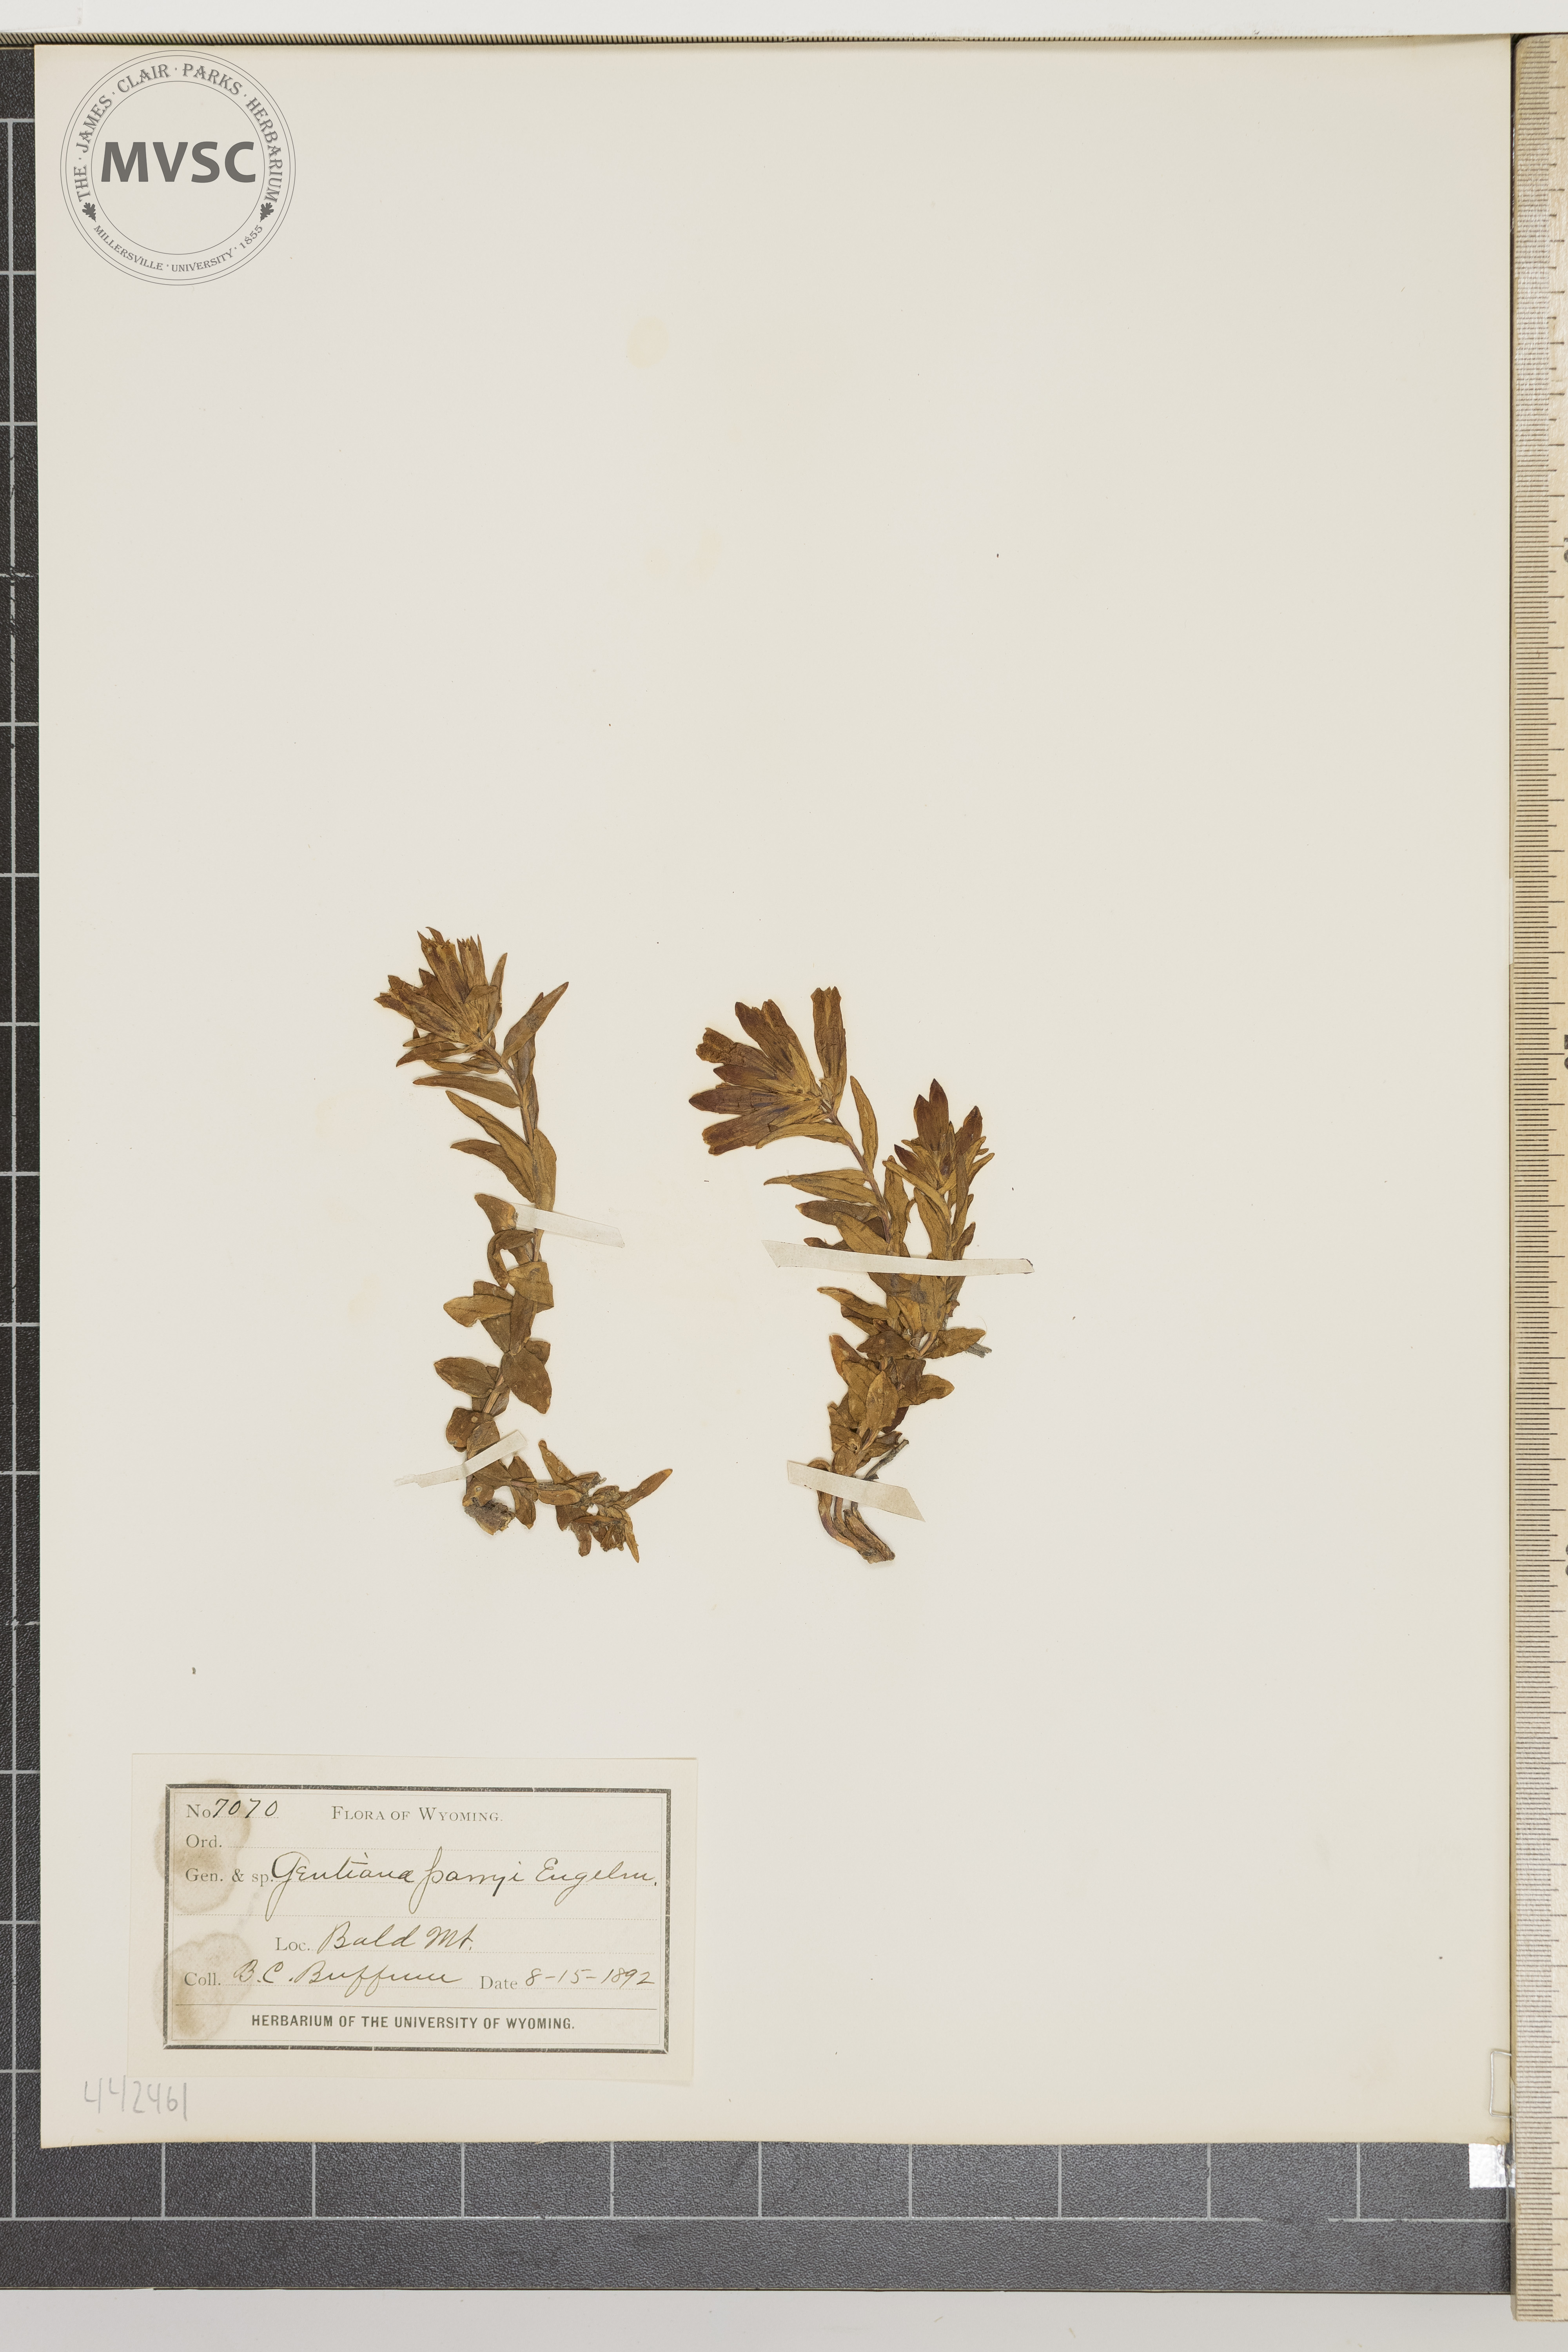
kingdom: Plantae
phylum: Tracheophyta
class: Magnoliopsida
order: Gentianales
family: Gentianaceae
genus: Gentiana
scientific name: Gentiana affinis
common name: Rocky mountain gentian
